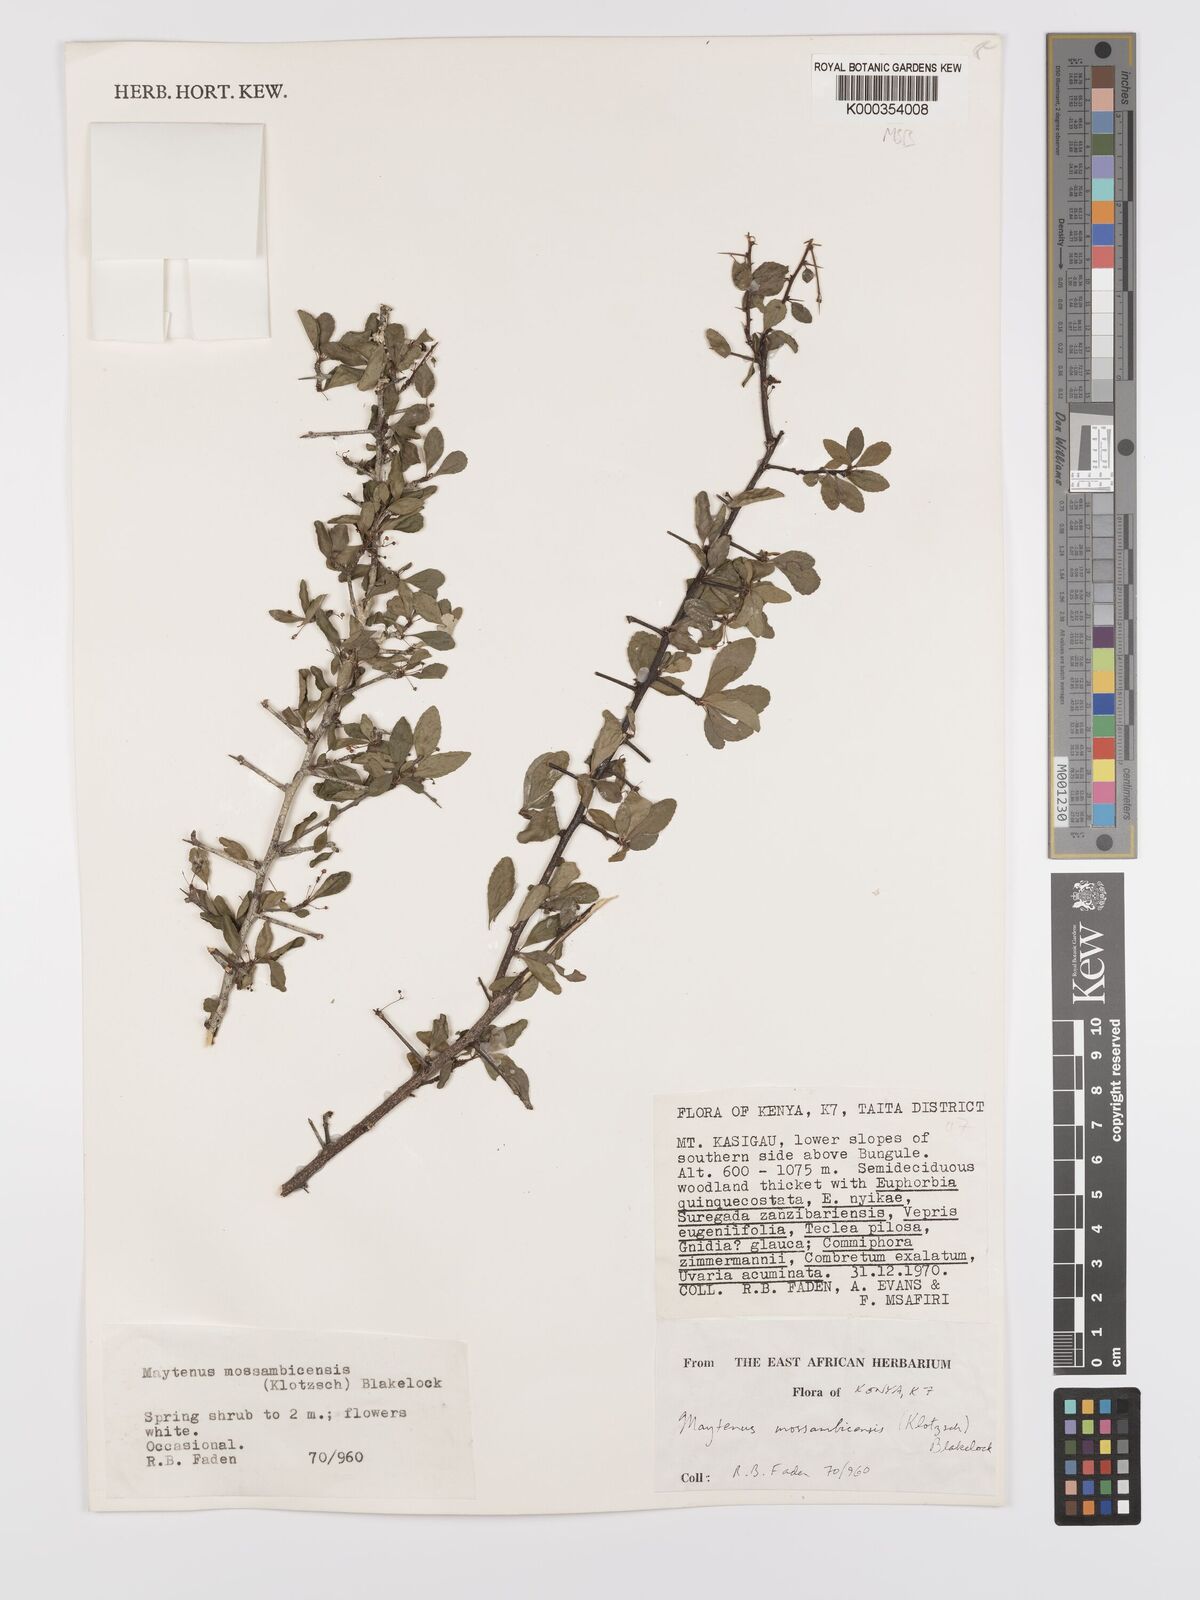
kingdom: Plantae
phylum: Tracheophyta
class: Magnoliopsida
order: Celastrales
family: Celastraceae
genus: Gymnosporia
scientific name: Gymnosporia mossambicensis
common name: Black forest spike-thorn
